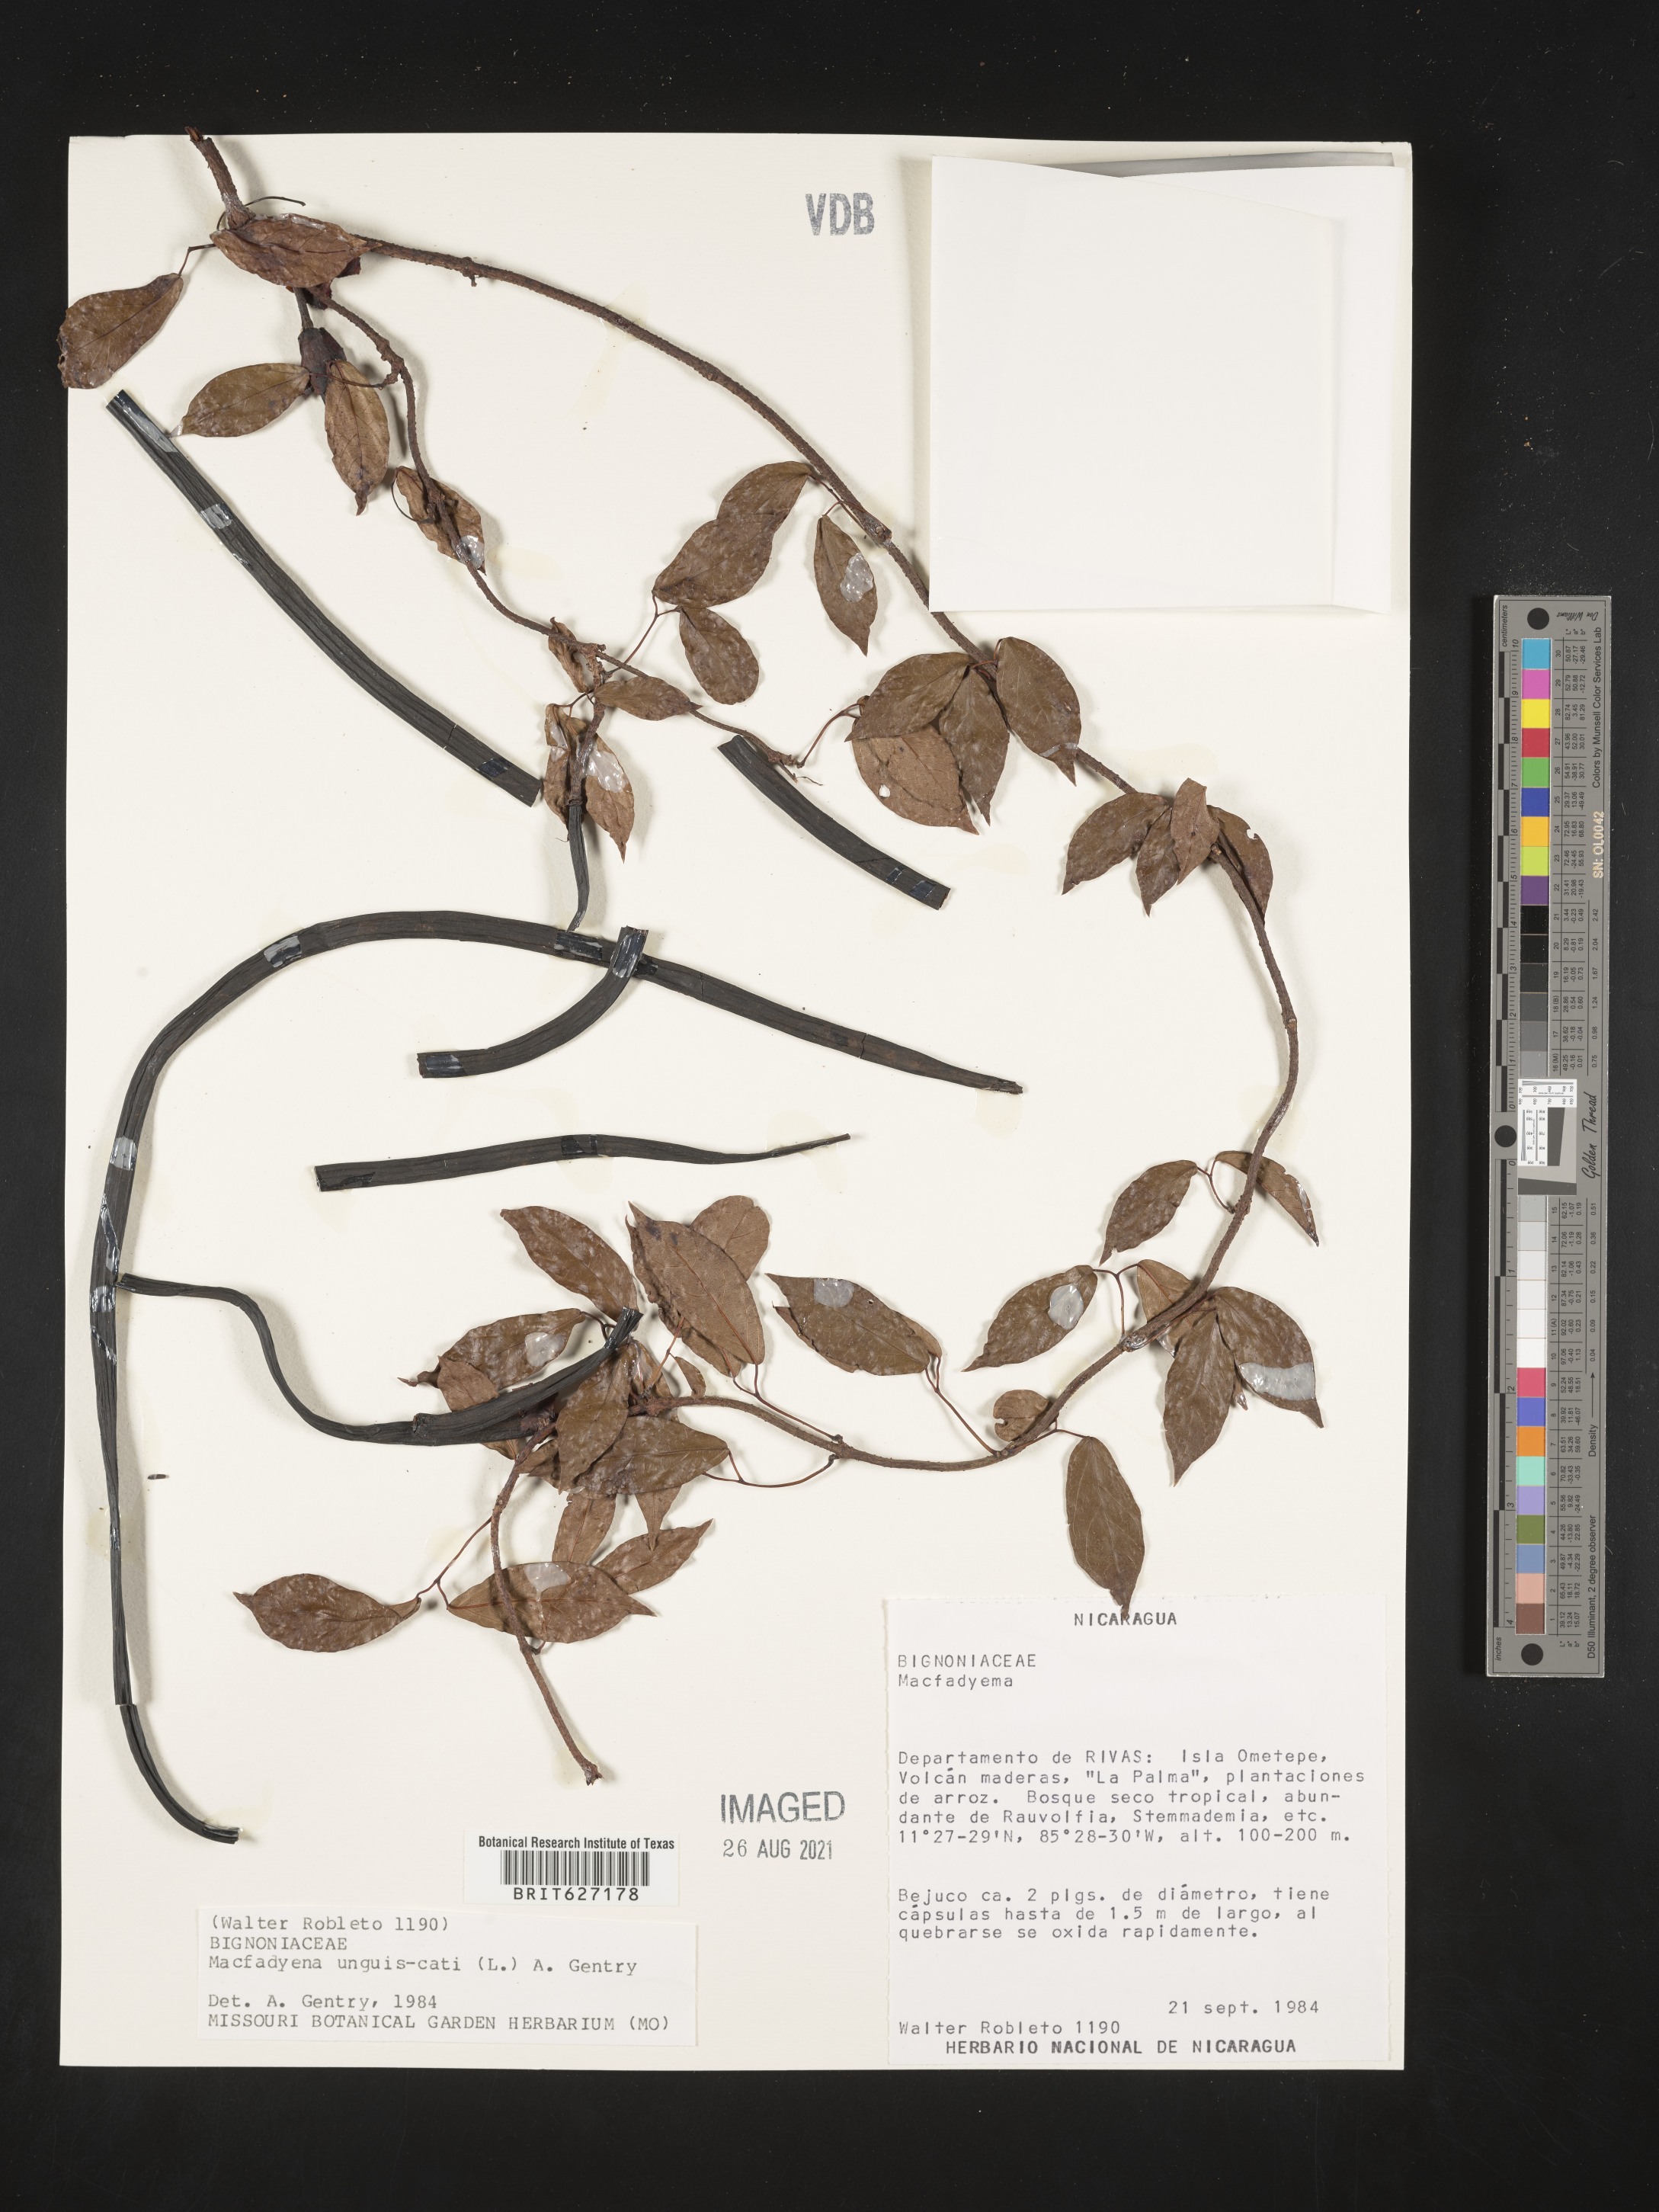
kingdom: Plantae
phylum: Tracheophyta
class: Magnoliopsida
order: Lamiales
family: Bignoniaceae
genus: Dolichandra
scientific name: Dolichandra unguis-cati
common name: Catclaw vine
